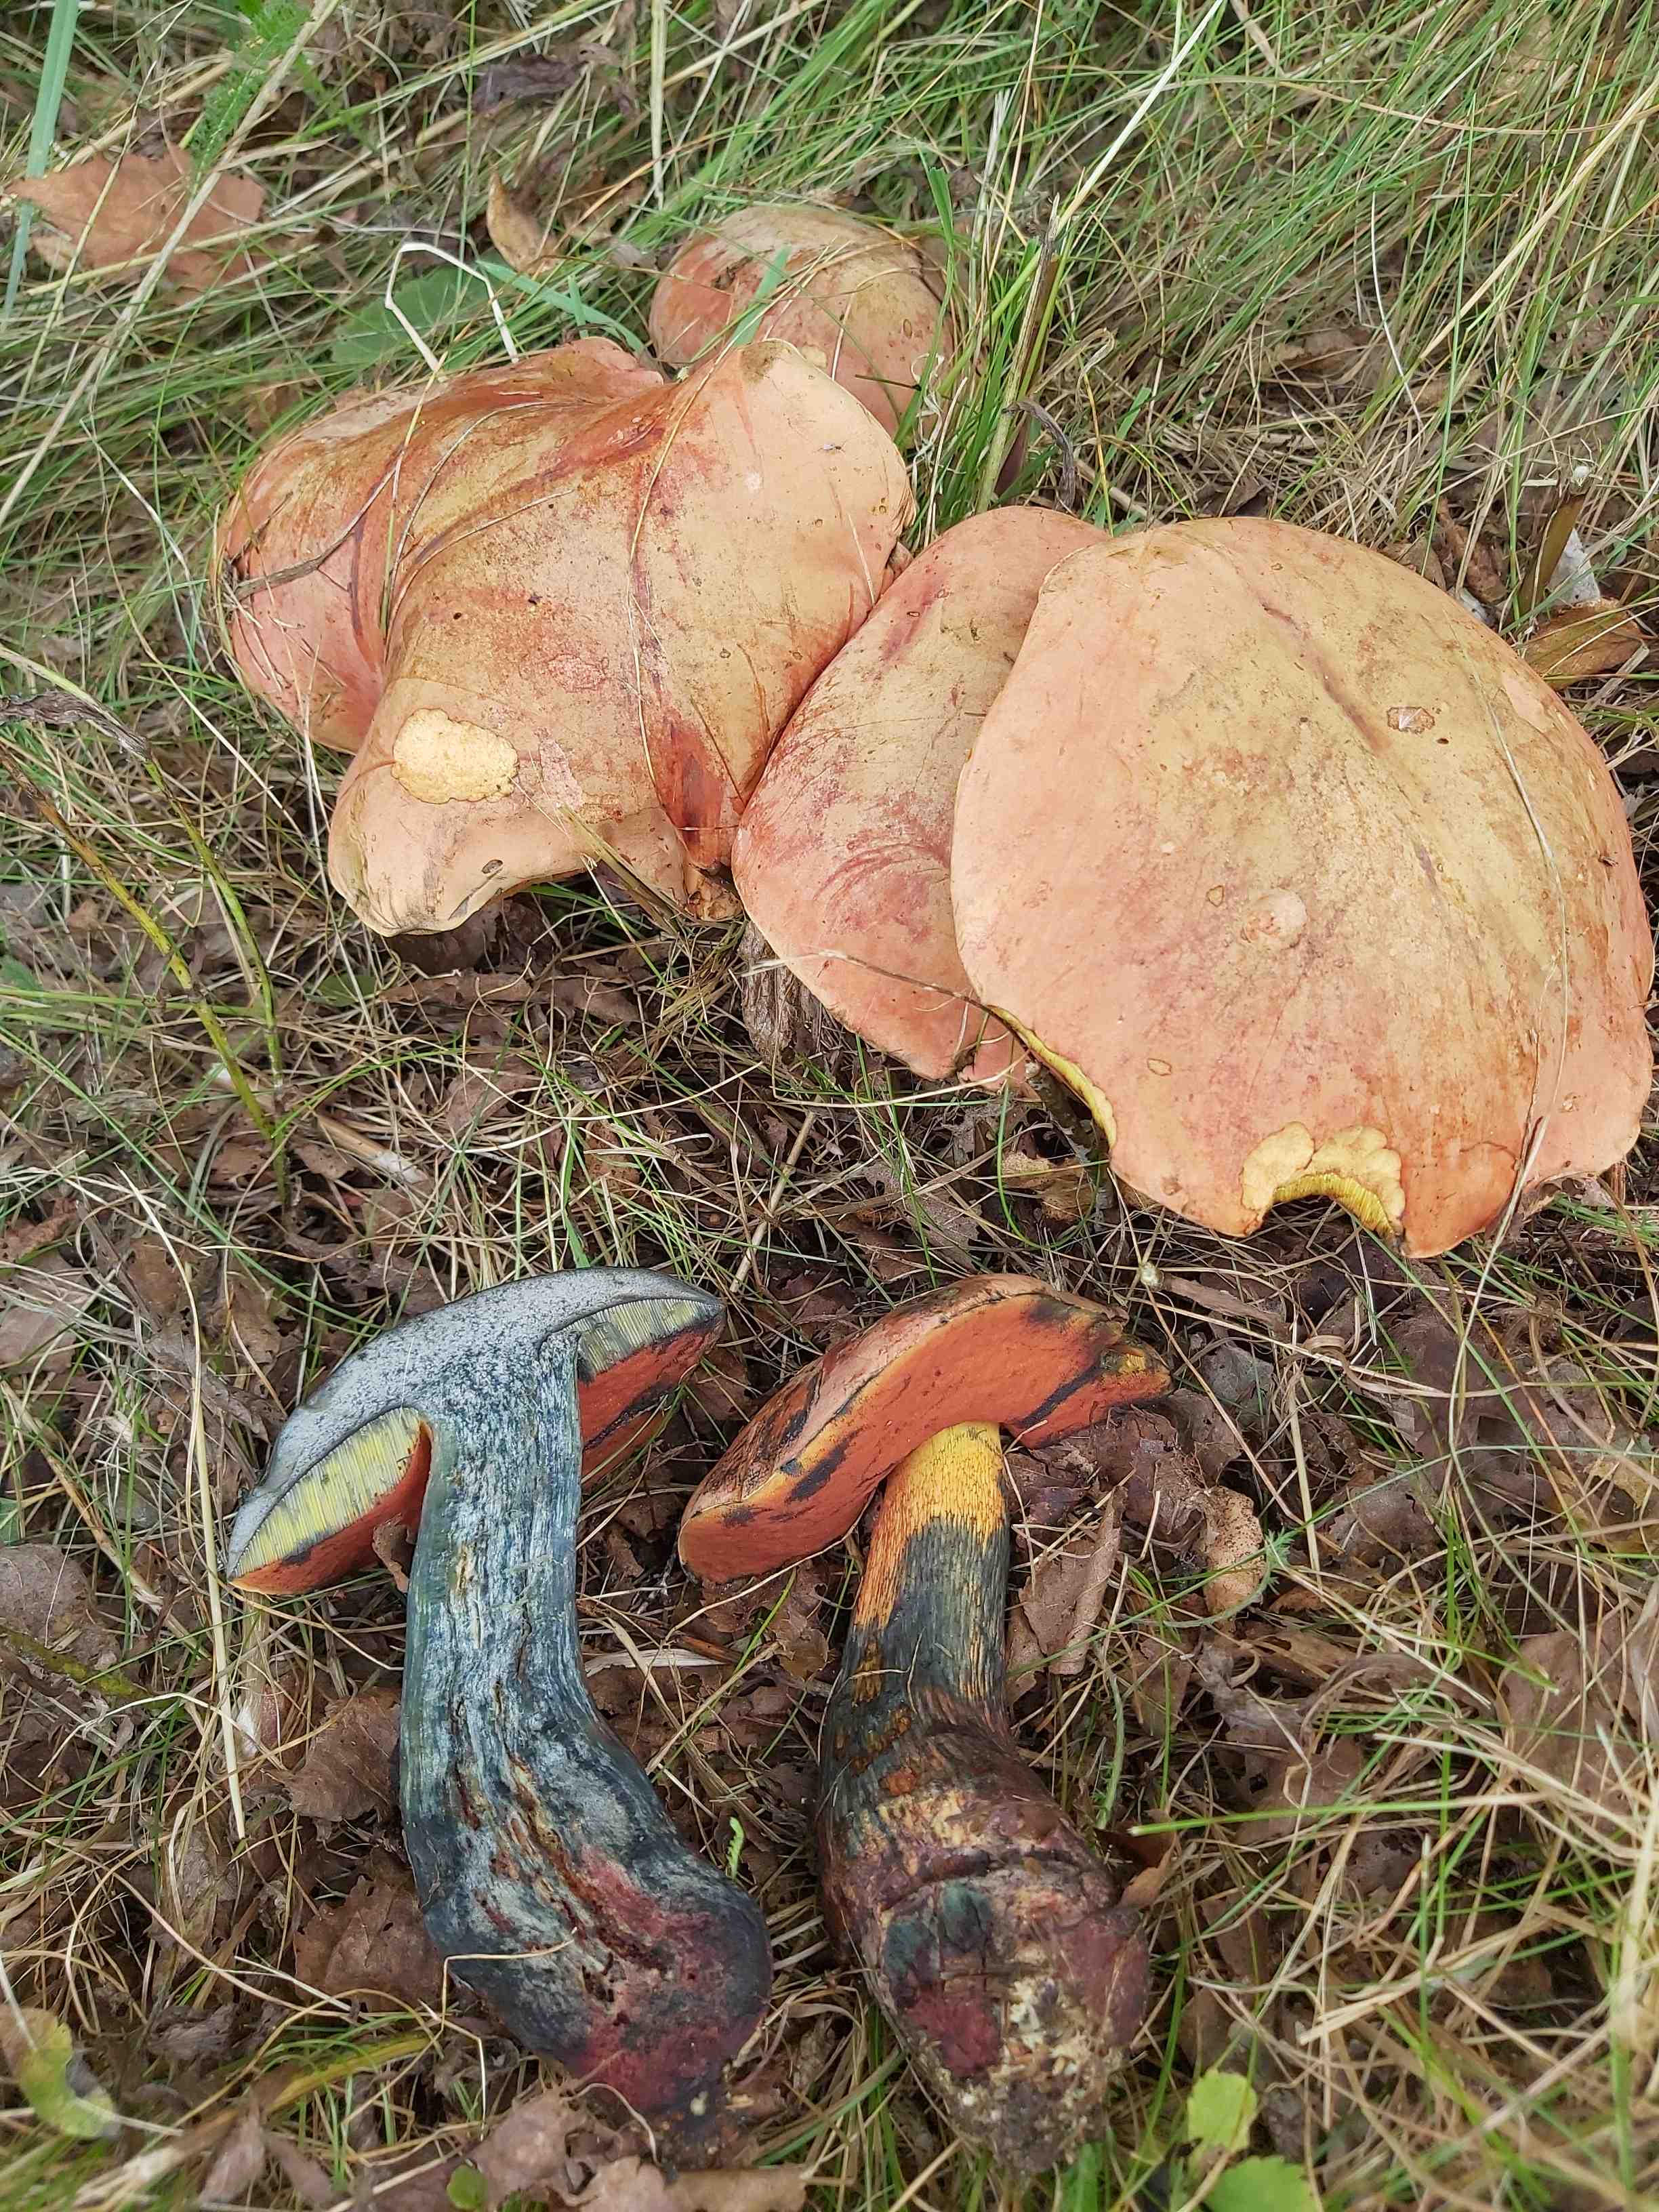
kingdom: Fungi
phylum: Basidiomycota
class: Agaricomycetes
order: Boletales
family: Boletaceae
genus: Suillellus
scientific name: Suillellus luridus
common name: netstokket indigorørhat
